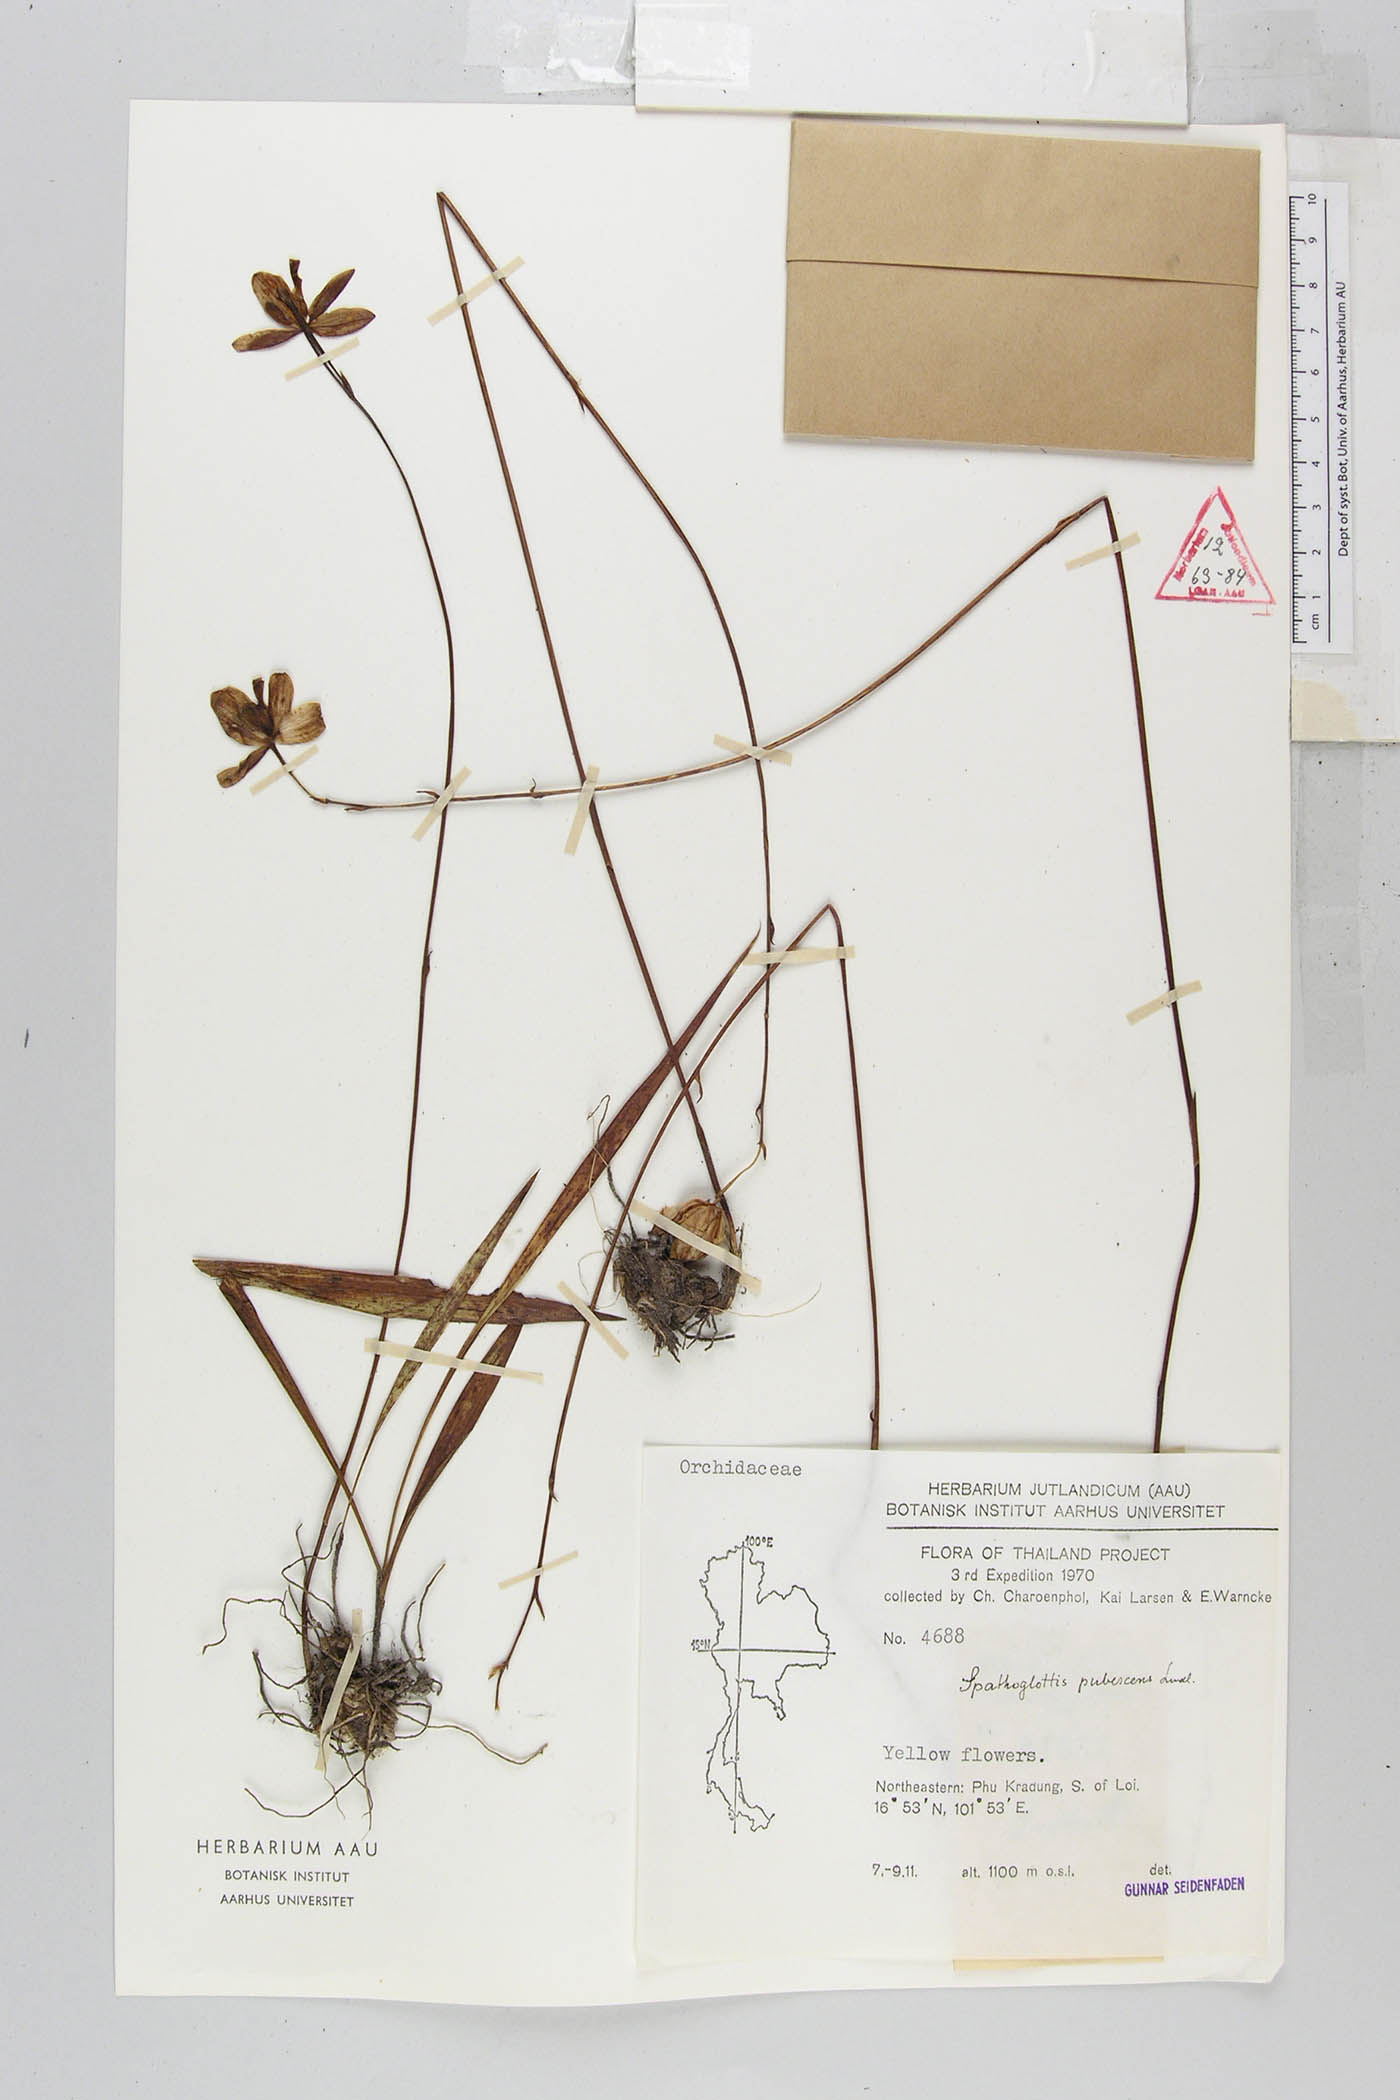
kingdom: Plantae
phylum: Tracheophyta
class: Liliopsida
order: Asparagales
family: Orchidaceae
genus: Spathoglottis
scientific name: Spathoglottis pubescens
